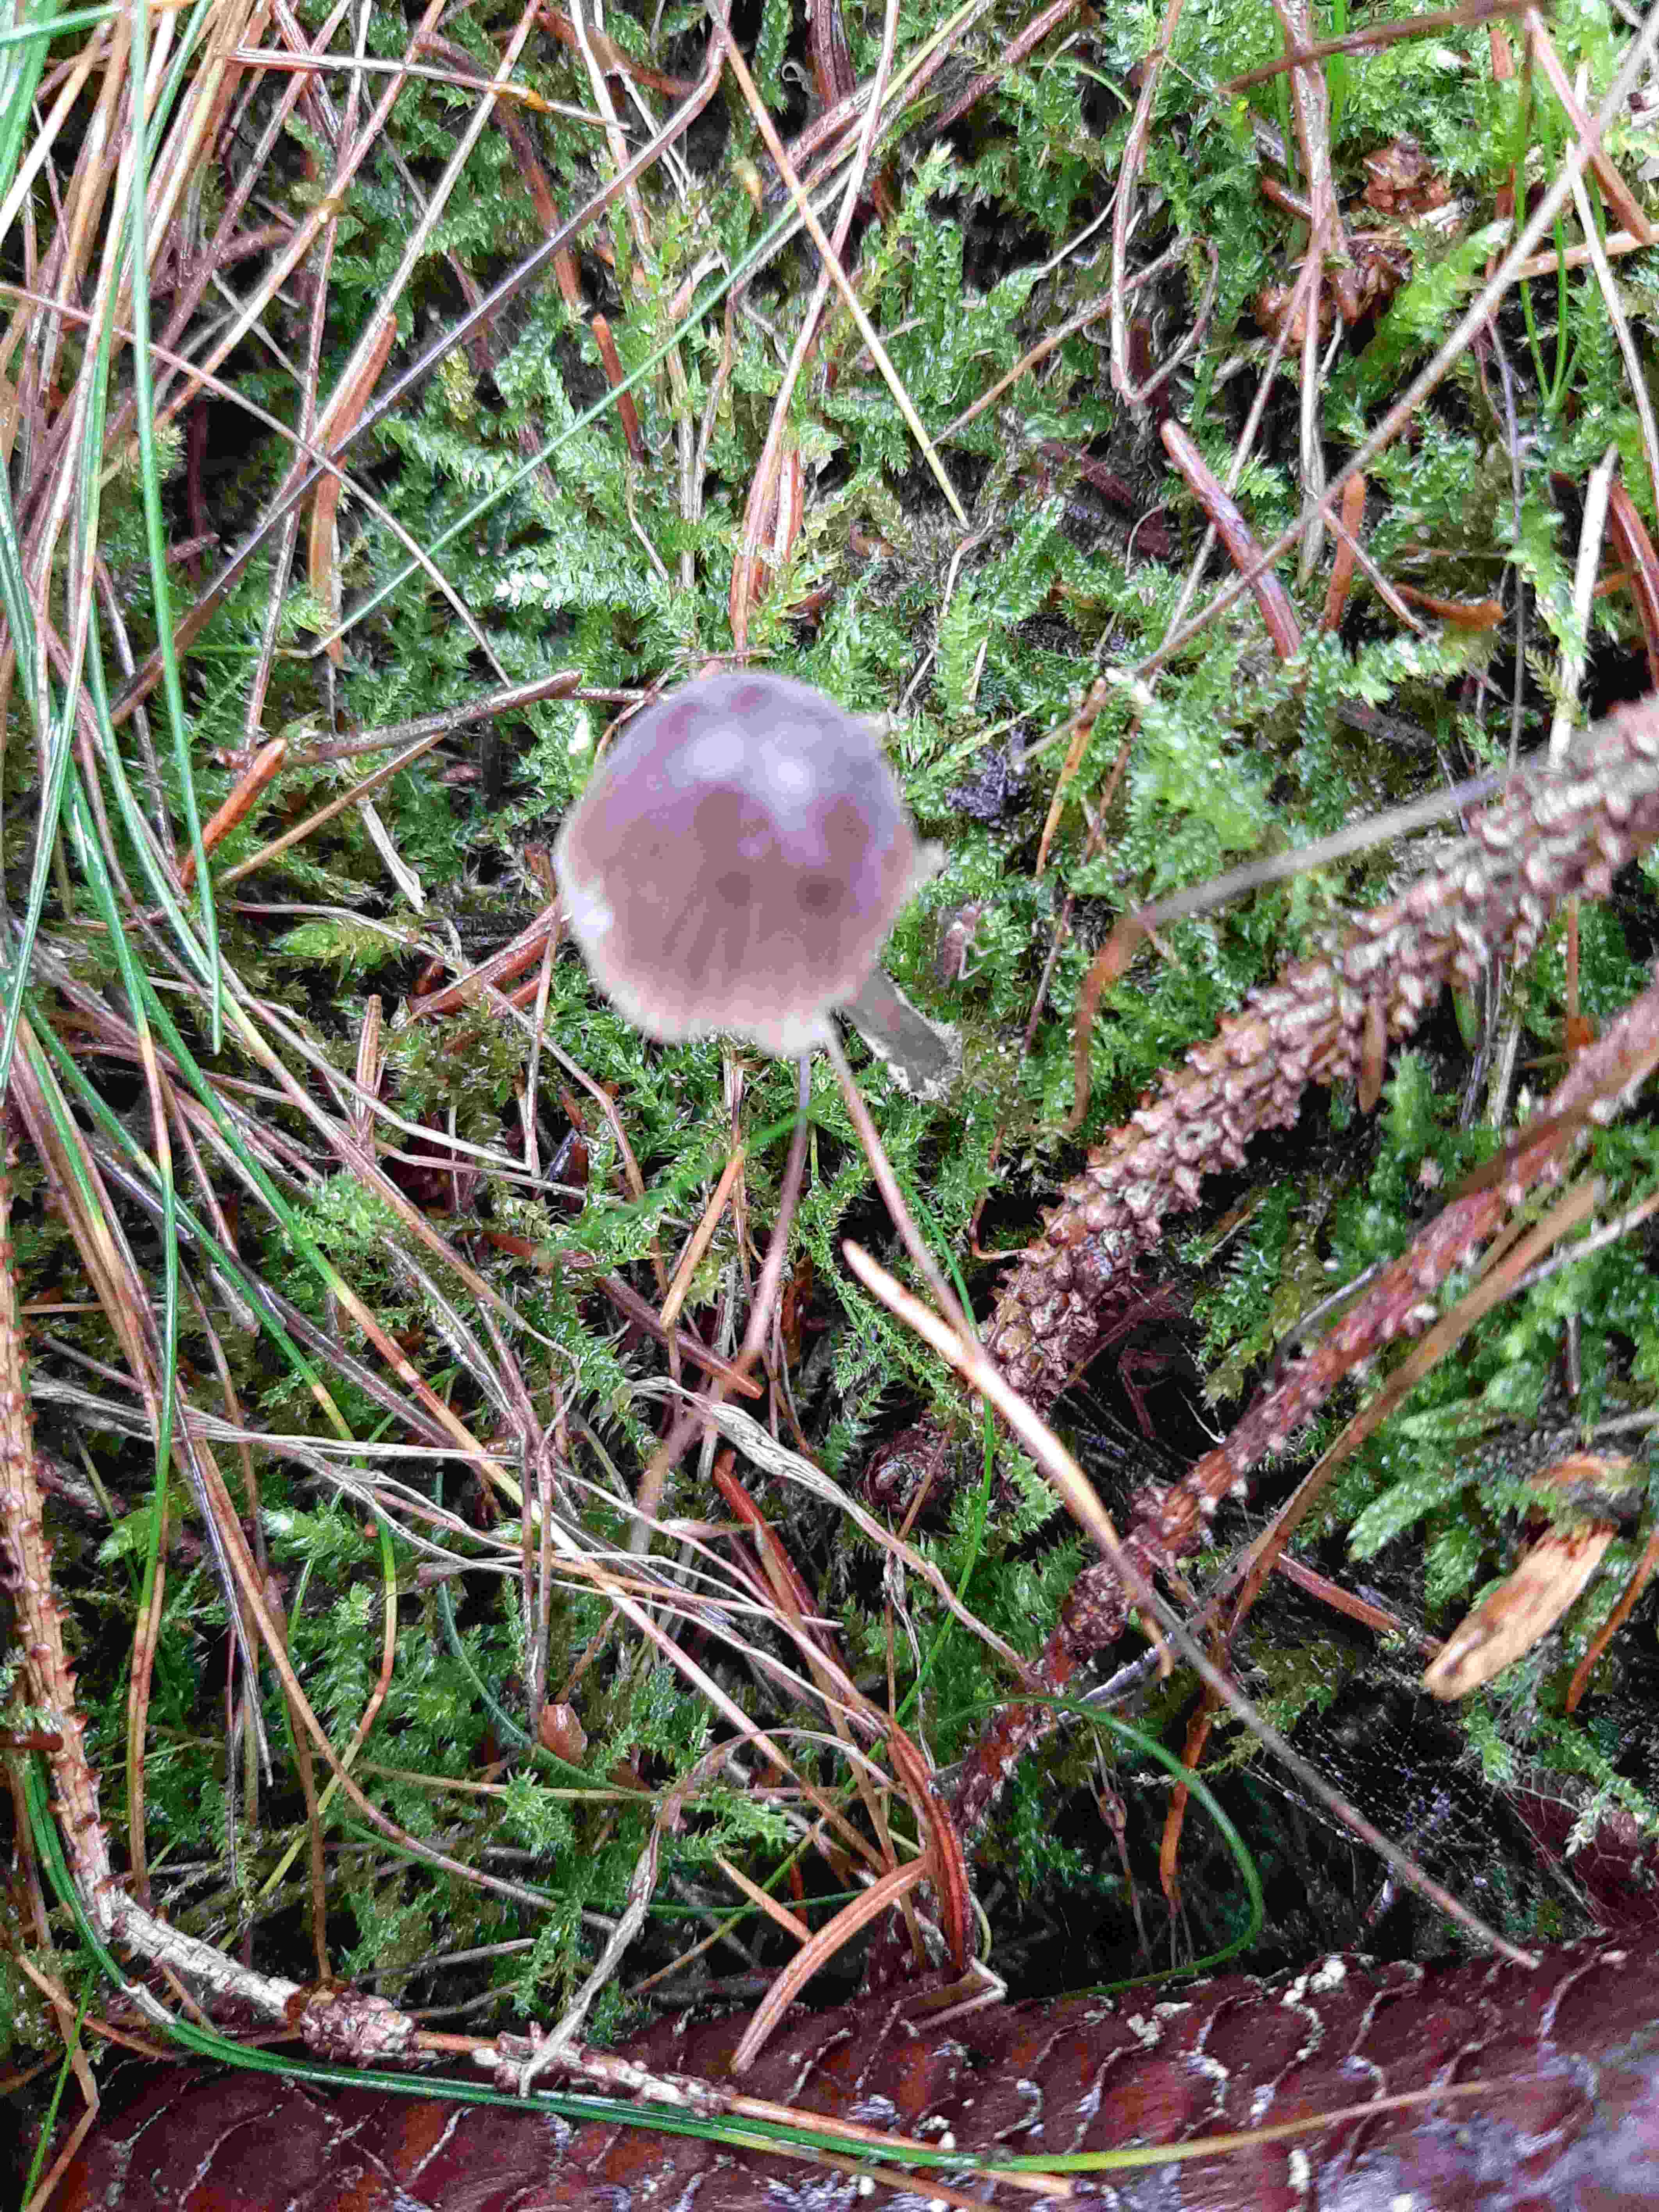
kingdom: Fungi
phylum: Basidiomycota
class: Agaricomycetes
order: Agaricales
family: Mycenaceae
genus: Mycena
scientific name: Mycena
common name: huesvamp
